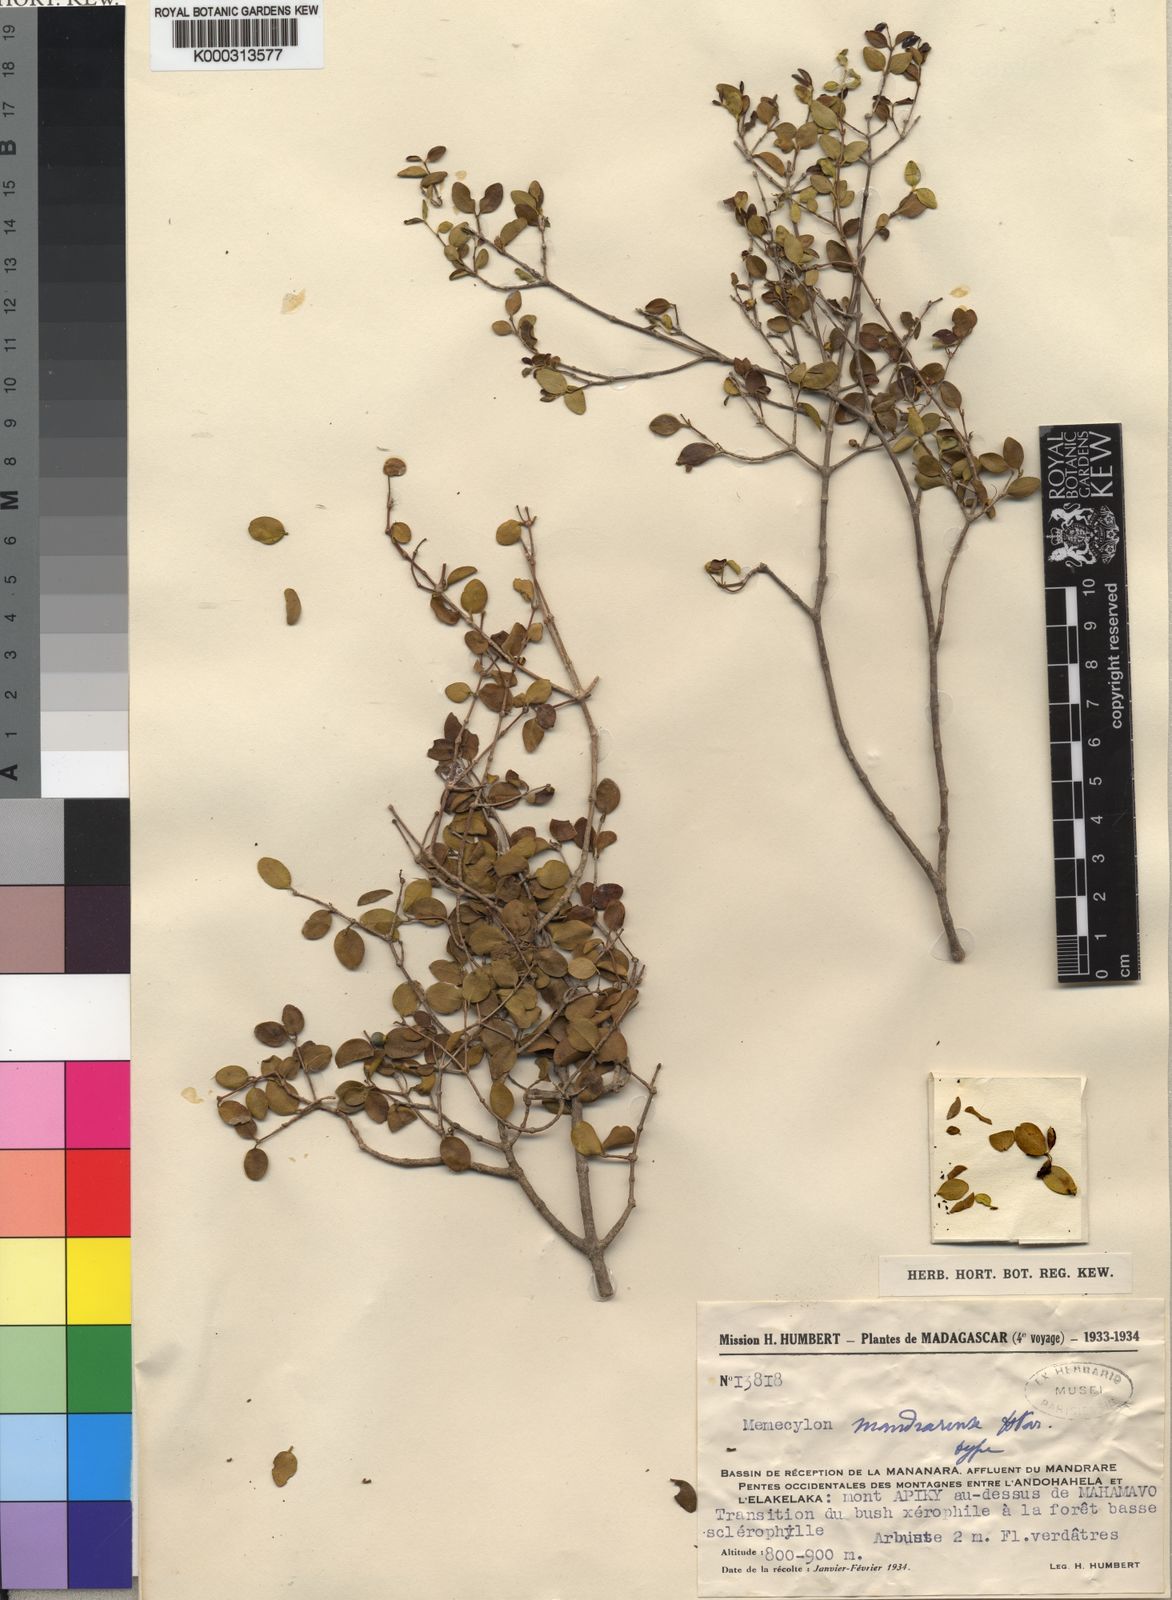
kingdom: Plantae
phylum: Tracheophyta
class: Magnoliopsida
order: Myrtales
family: Melastomataceae
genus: Memecylon
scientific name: Memecylon mandrarense
